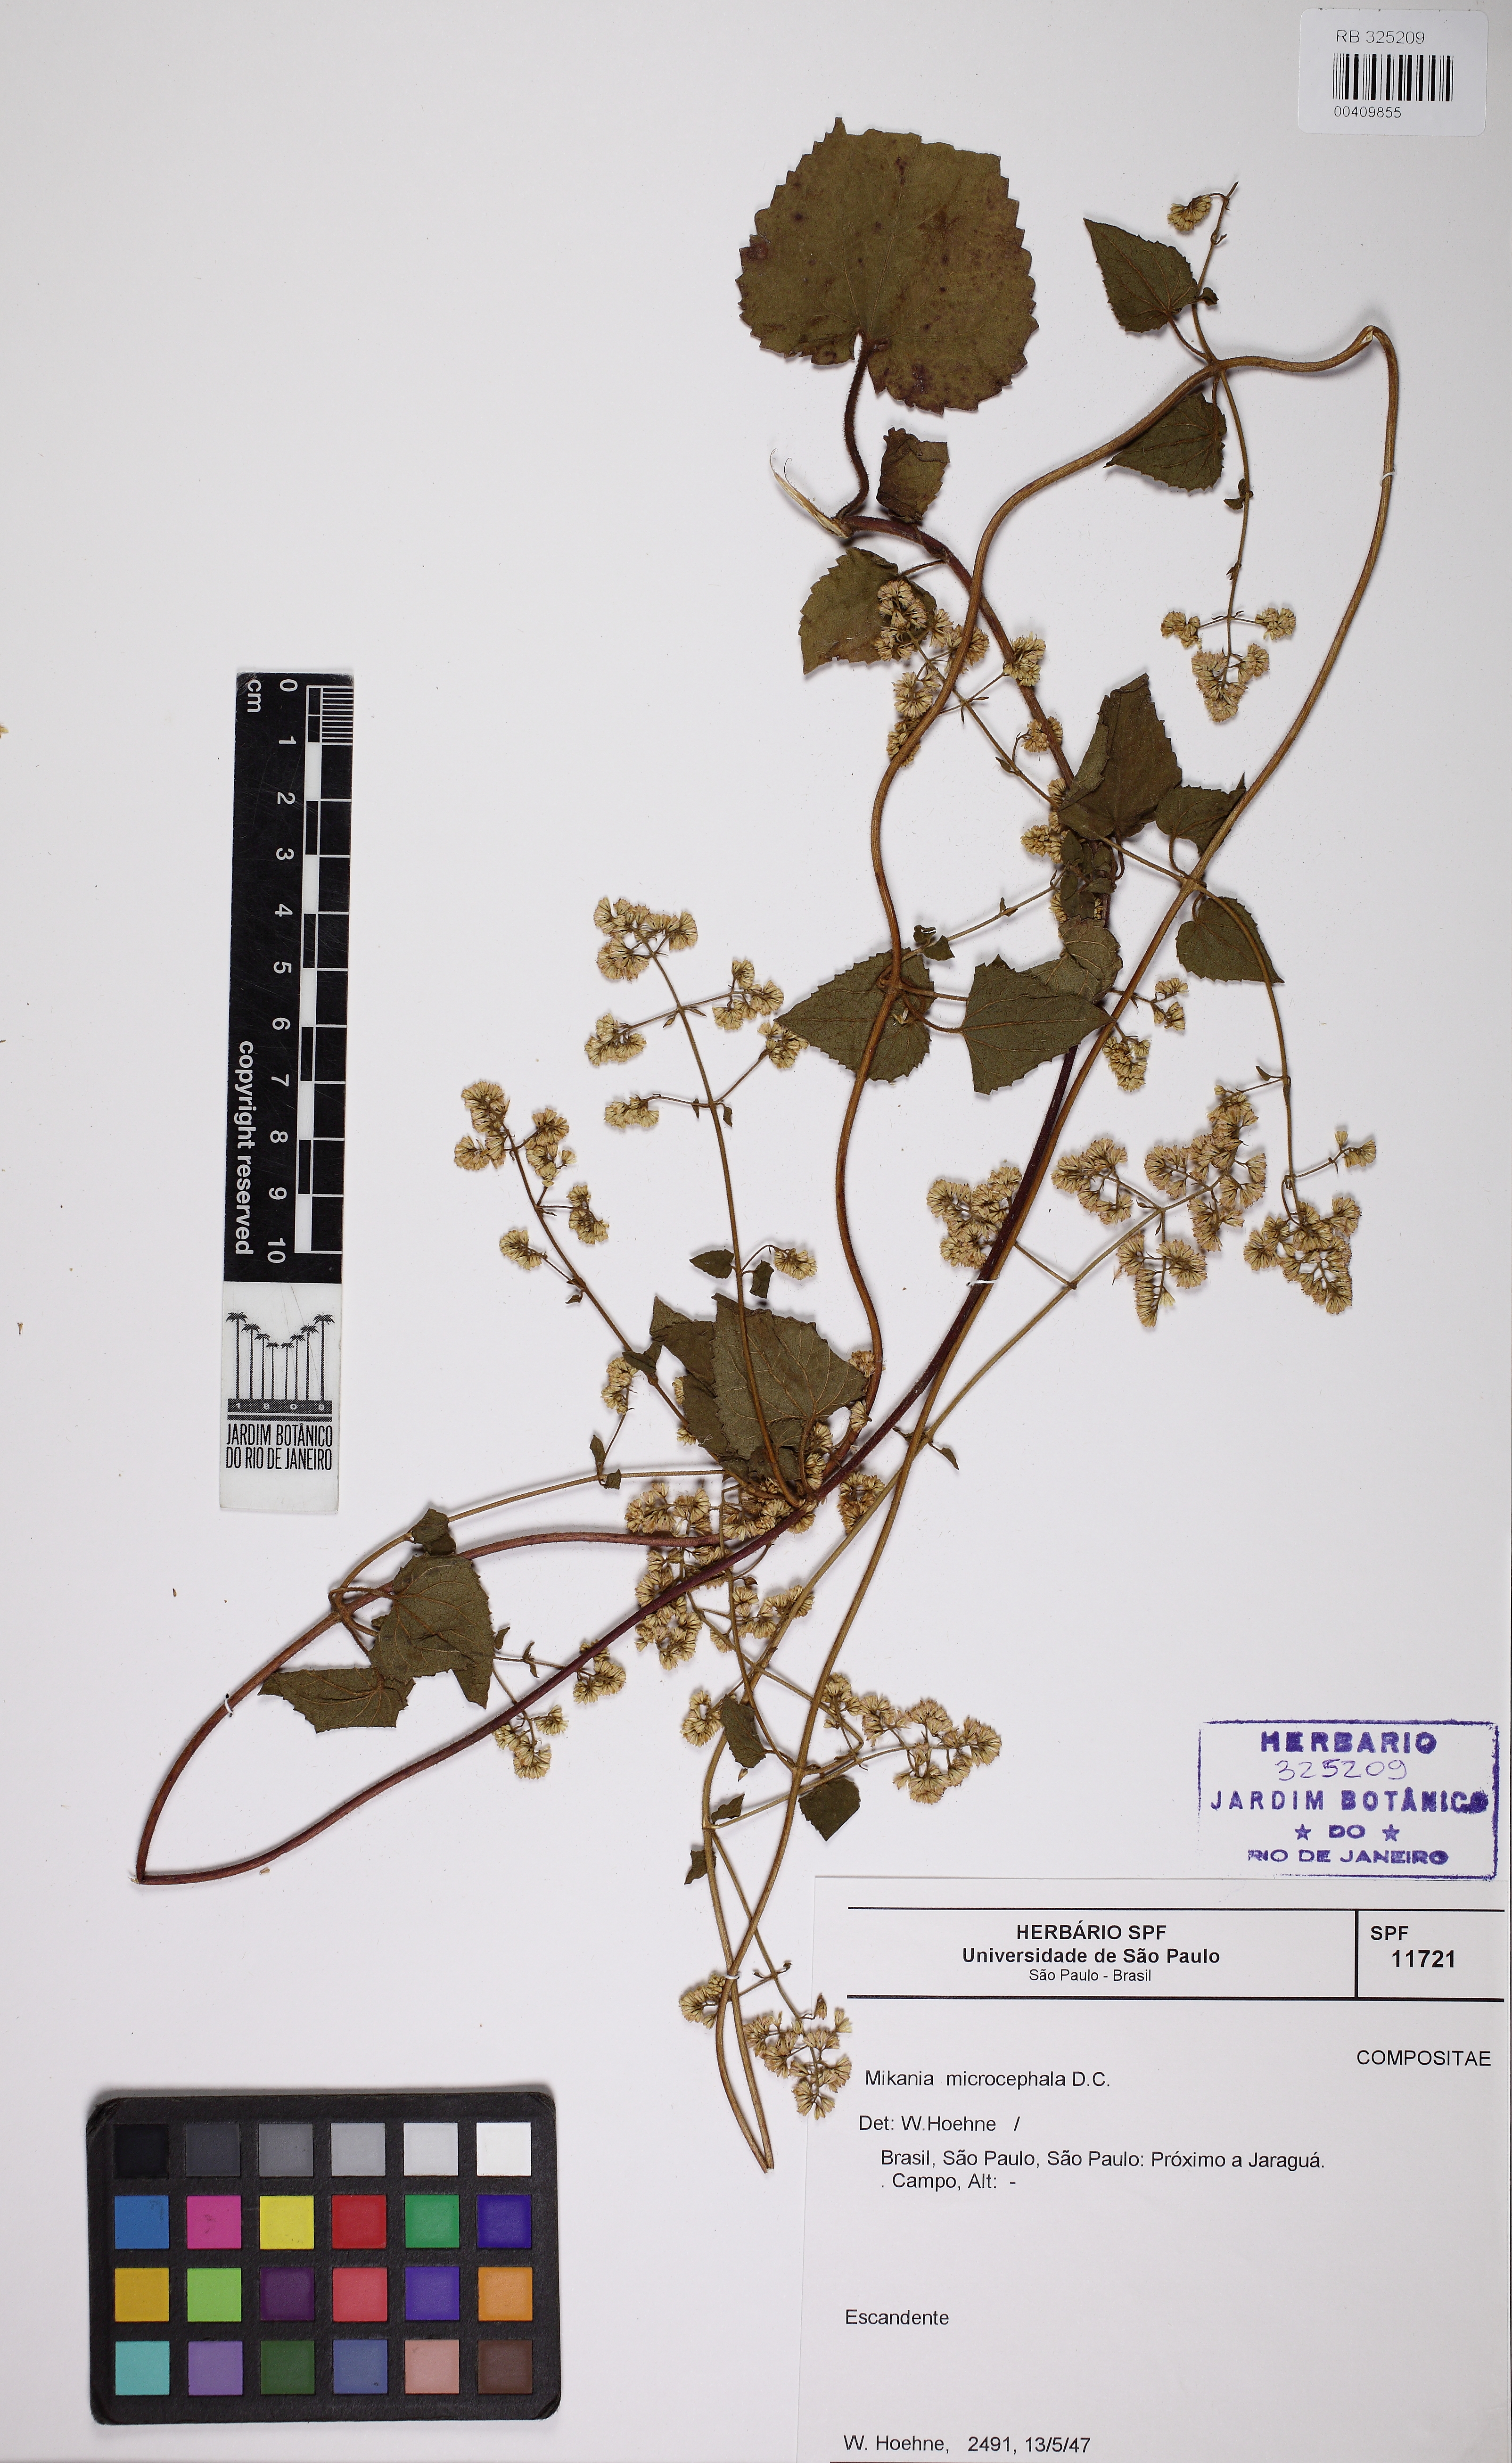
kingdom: Plantae
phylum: Tracheophyta
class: Magnoliopsida
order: Asterales
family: Asteraceae
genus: Mikania
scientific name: Mikania microcephala
